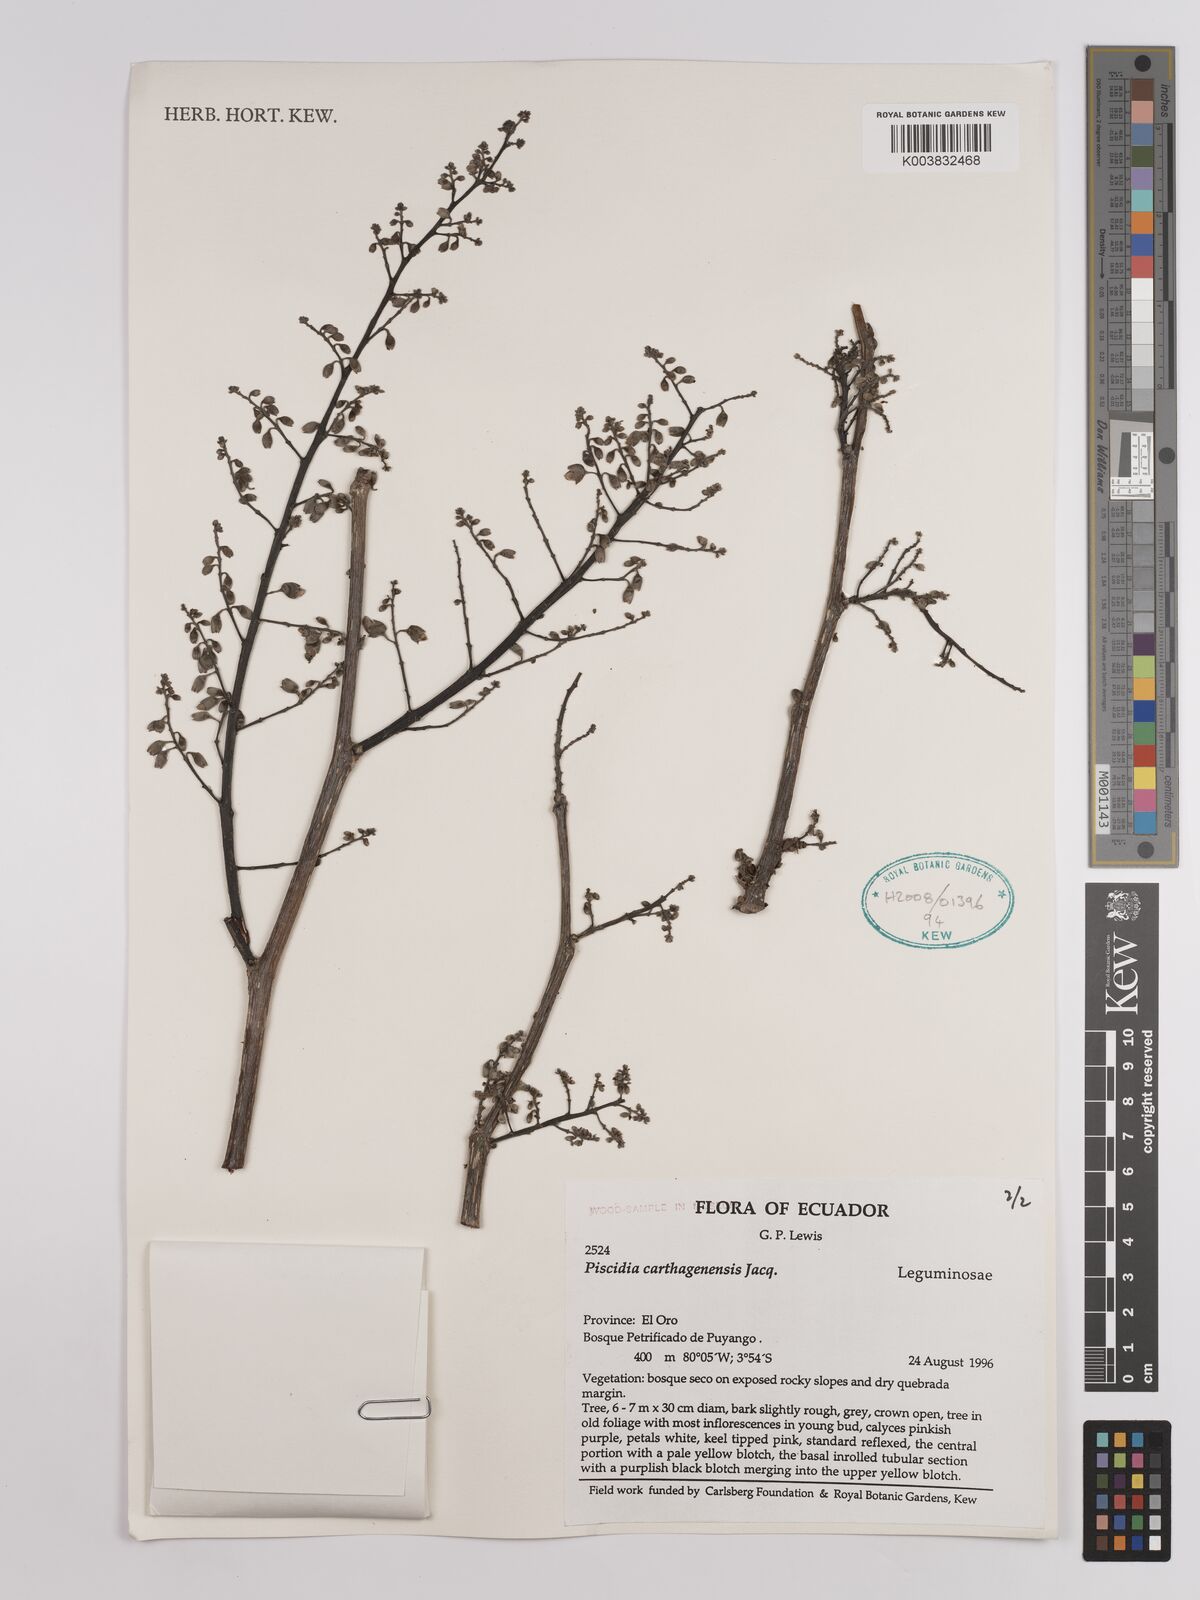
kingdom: Plantae
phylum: Tracheophyta
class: Magnoliopsida
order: Fabales
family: Fabaceae
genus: Piscidia
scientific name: Piscidia carthagenensis
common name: Stinkwood
